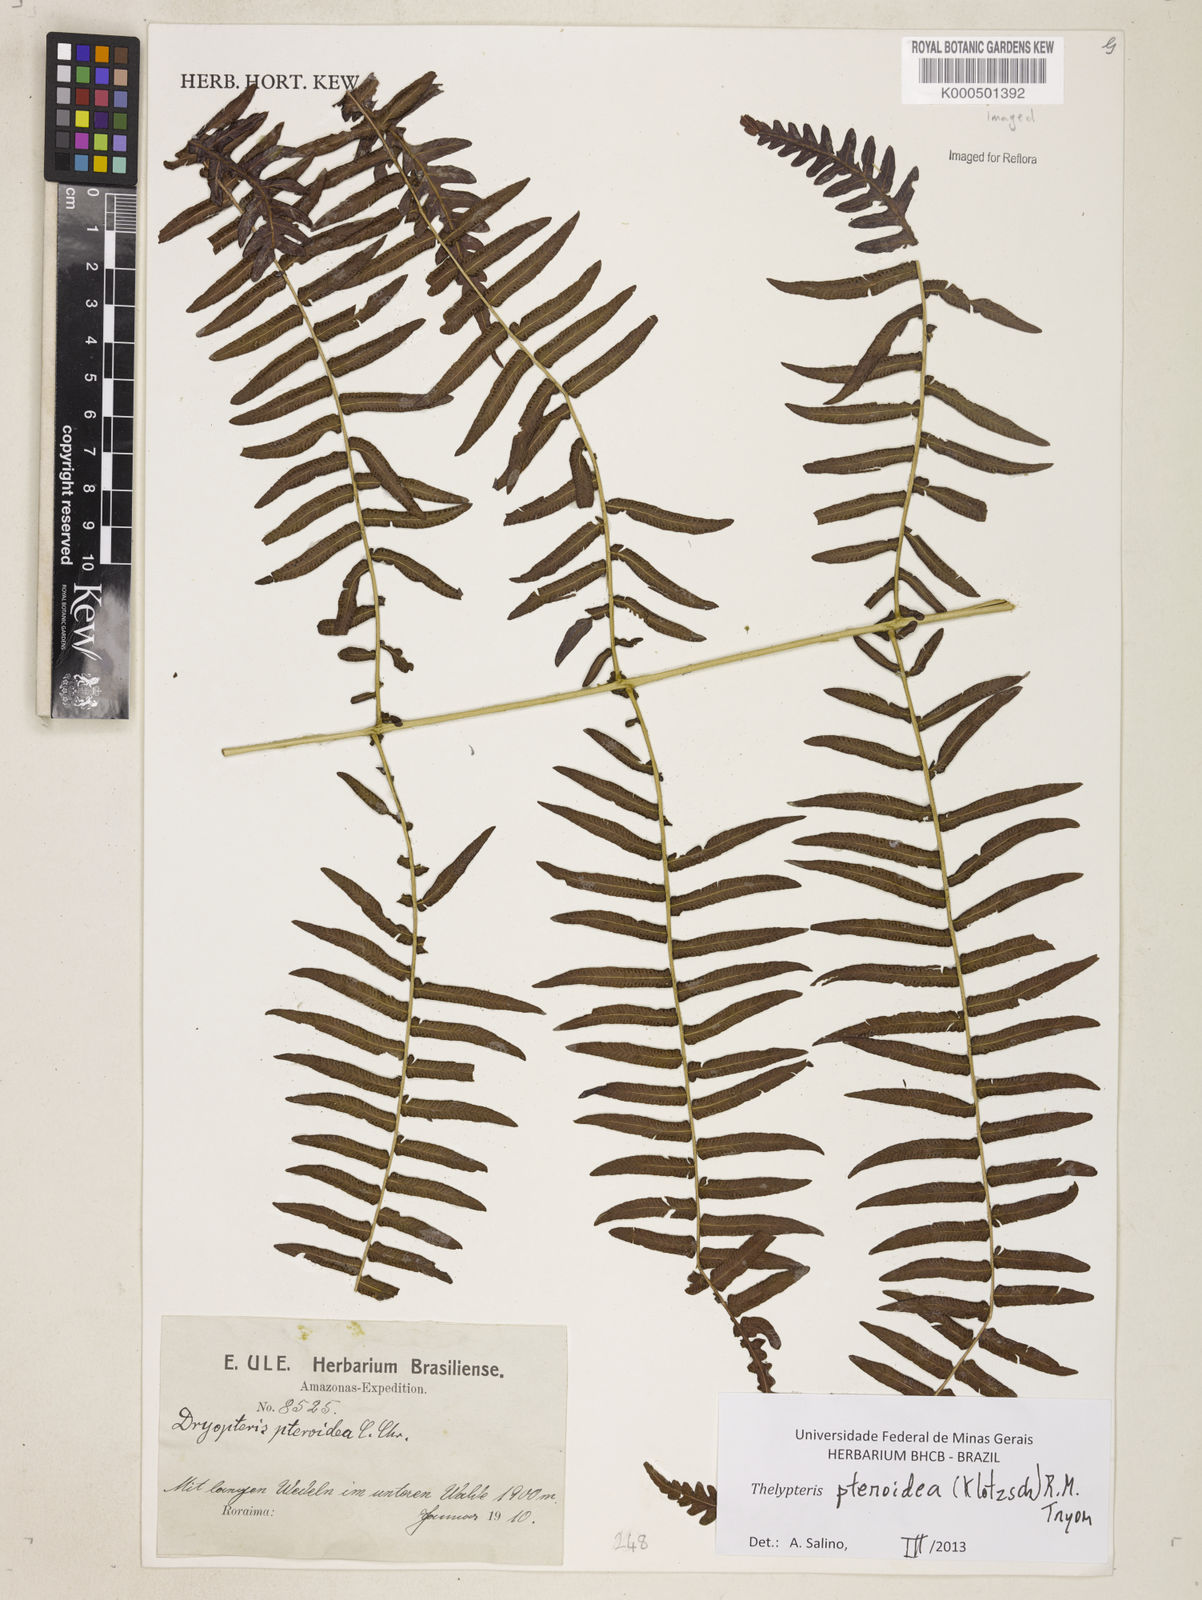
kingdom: Plantae
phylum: Tracheophyta
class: Polypodiopsida
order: Polypodiales
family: Thelypteridaceae
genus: Amauropelta
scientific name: Amauropelta pteroidea
